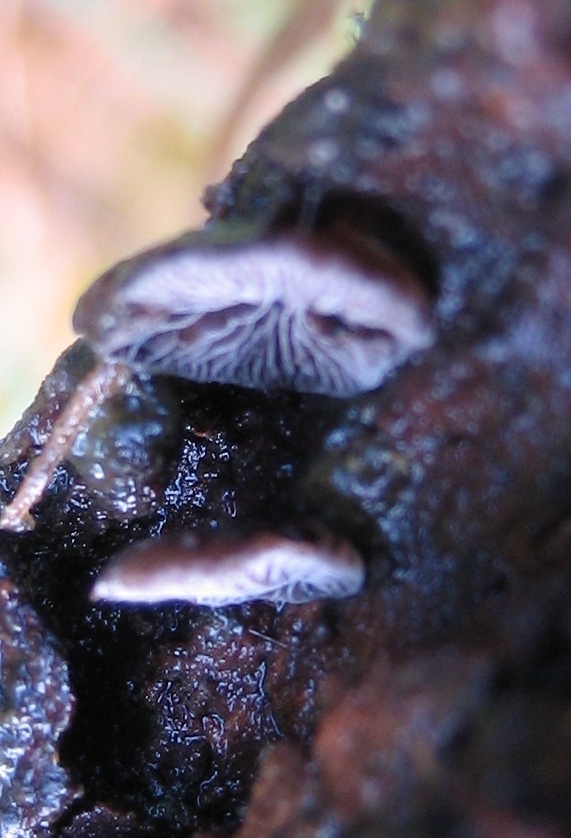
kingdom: Fungi
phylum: Basidiomycota
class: Agaricomycetes
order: Agaricales
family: Pleurotaceae
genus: Resupinatus
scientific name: Resupinatus
